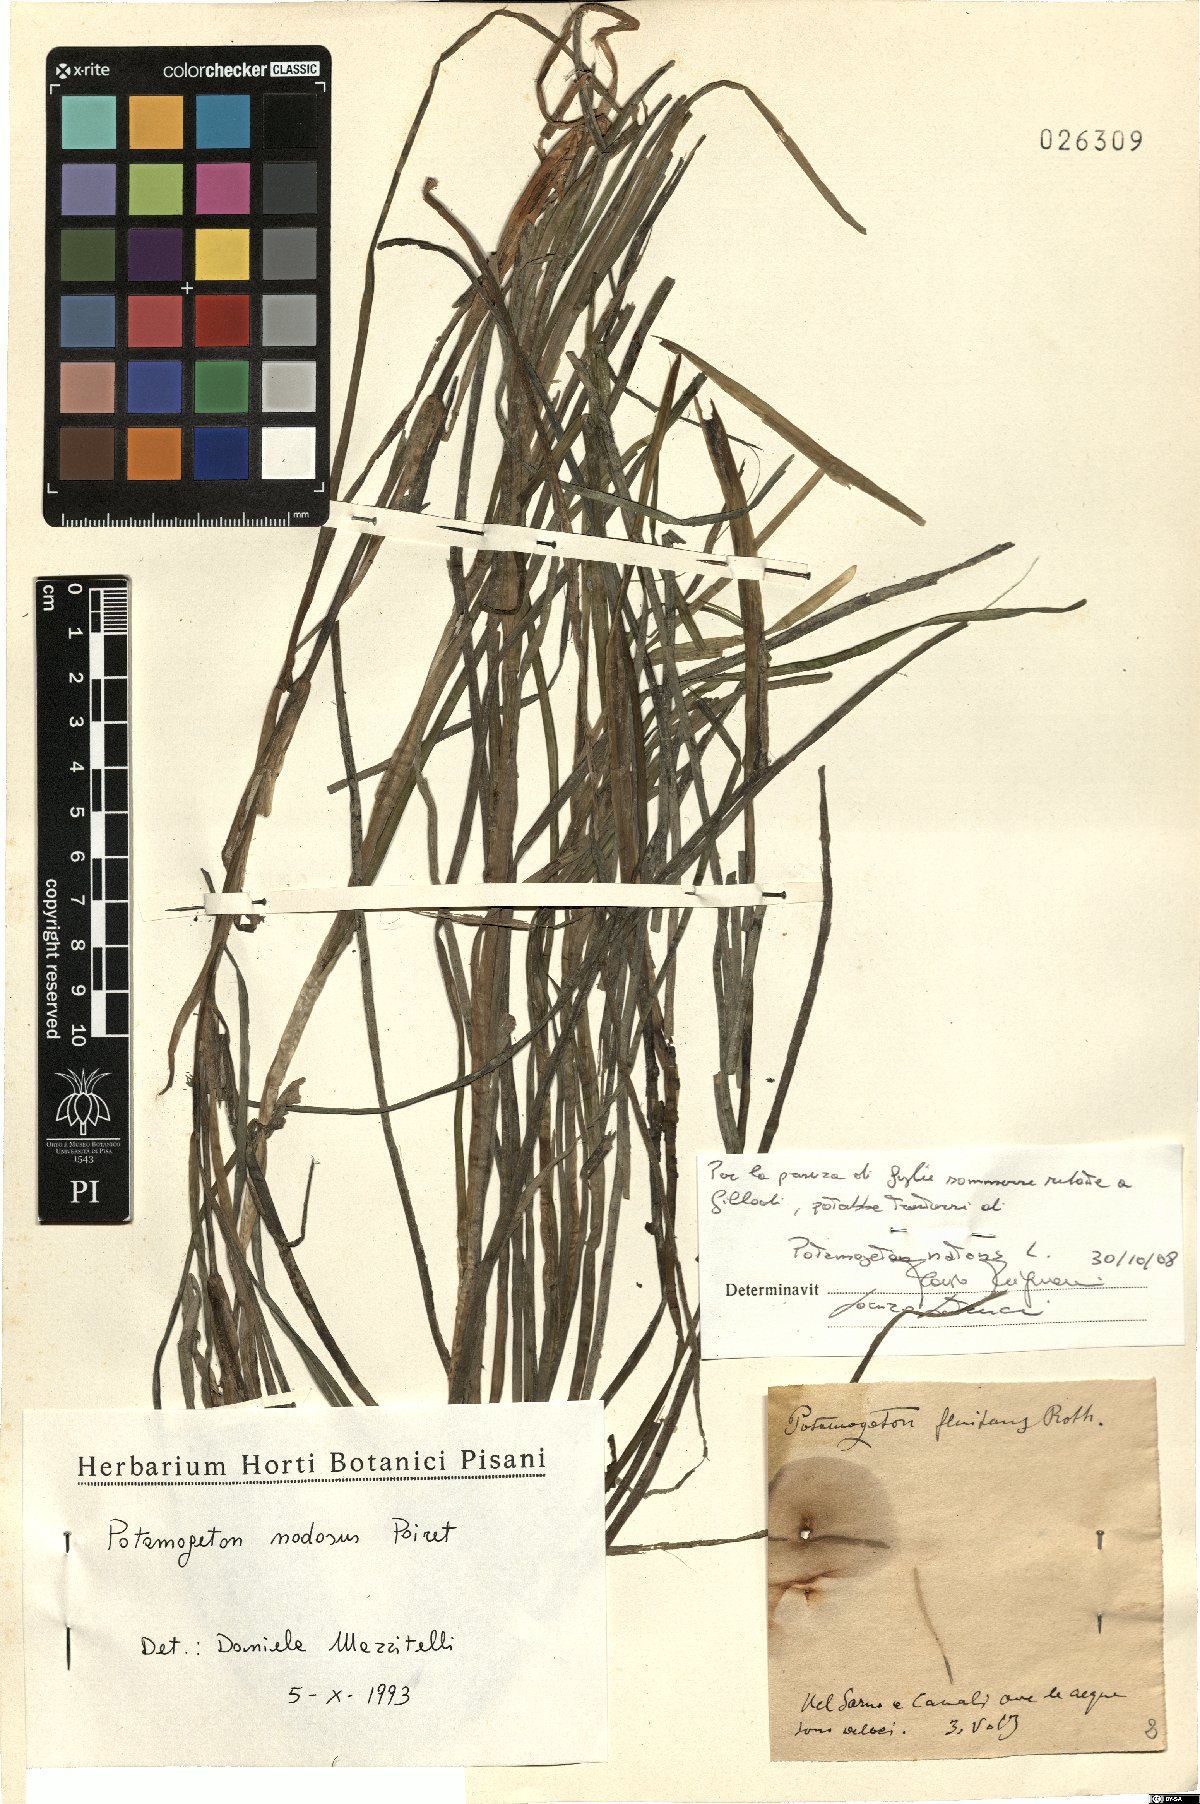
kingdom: Plantae
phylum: Tracheophyta
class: Liliopsida
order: Alismatales
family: Potamogetonaceae
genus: Potamogeton
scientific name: Potamogeton natans
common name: Broad-leaved pondweed
